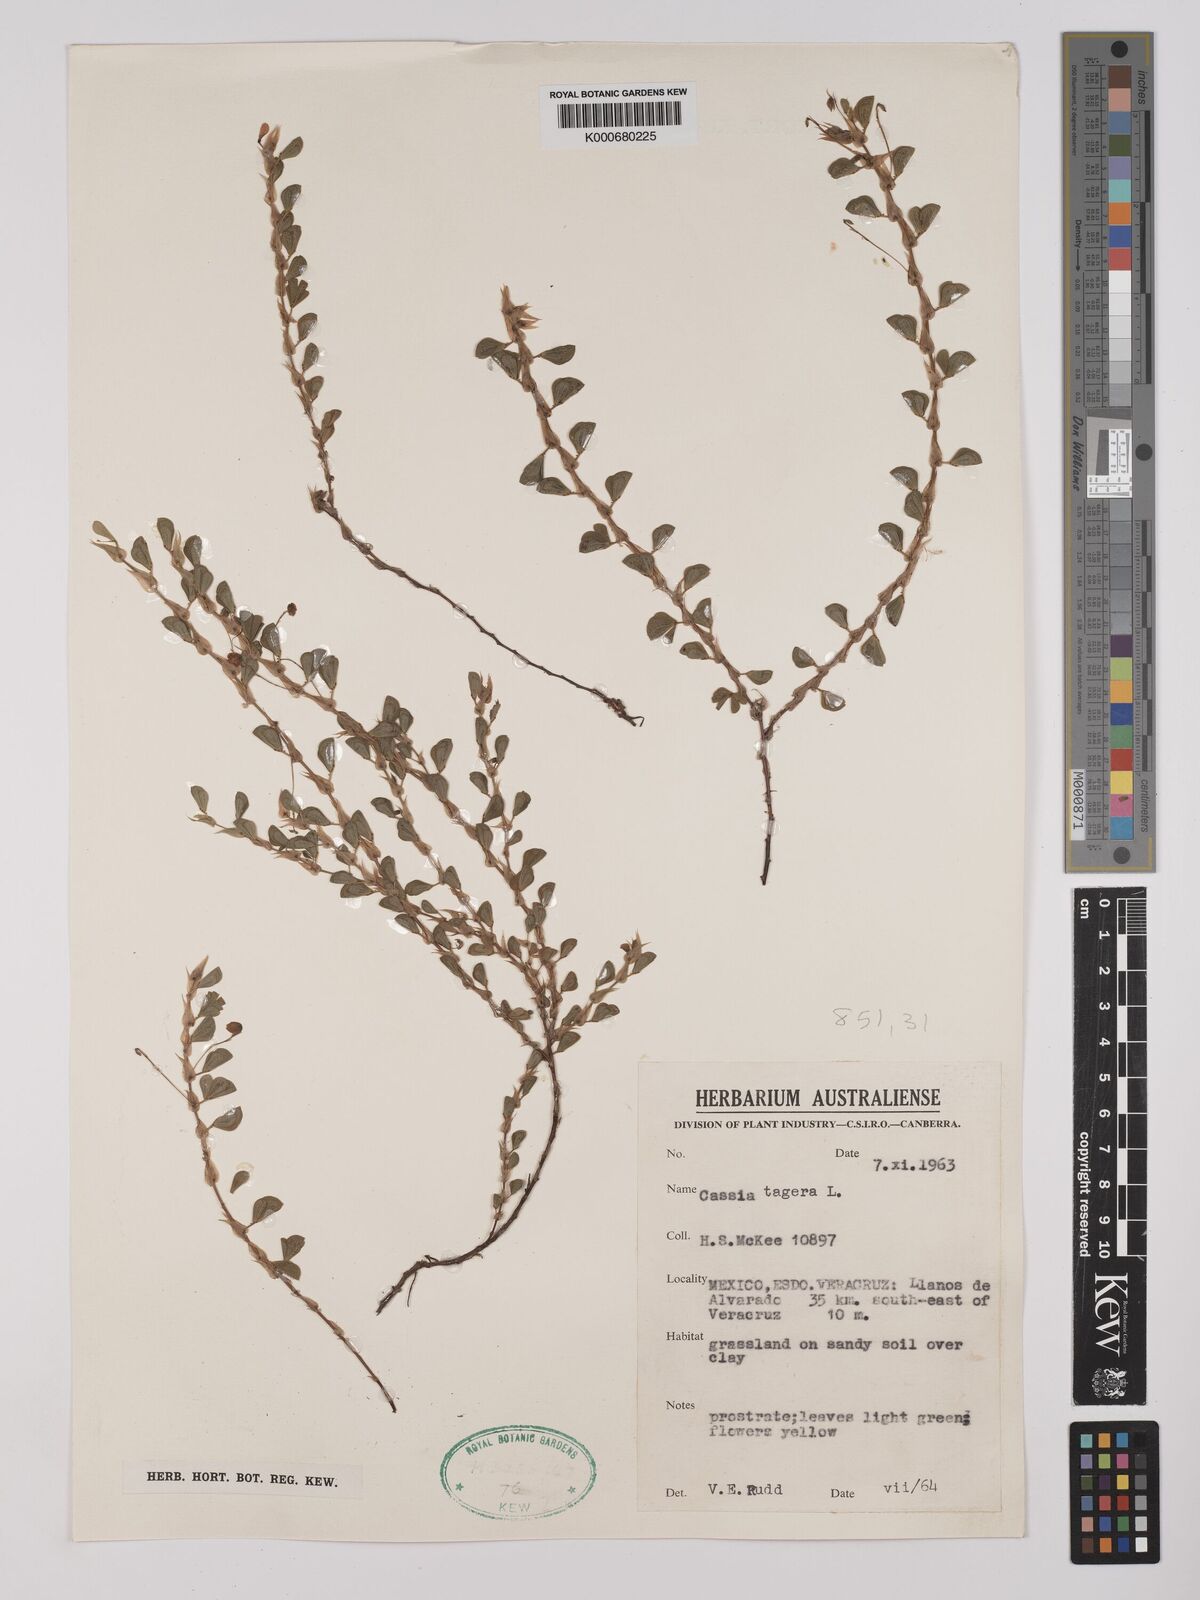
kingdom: Plantae
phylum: Tracheophyta
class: Magnoliopsida
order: Fabales
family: Fabaceae
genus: Chamaecrista
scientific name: Chamaecrista kunthiana
